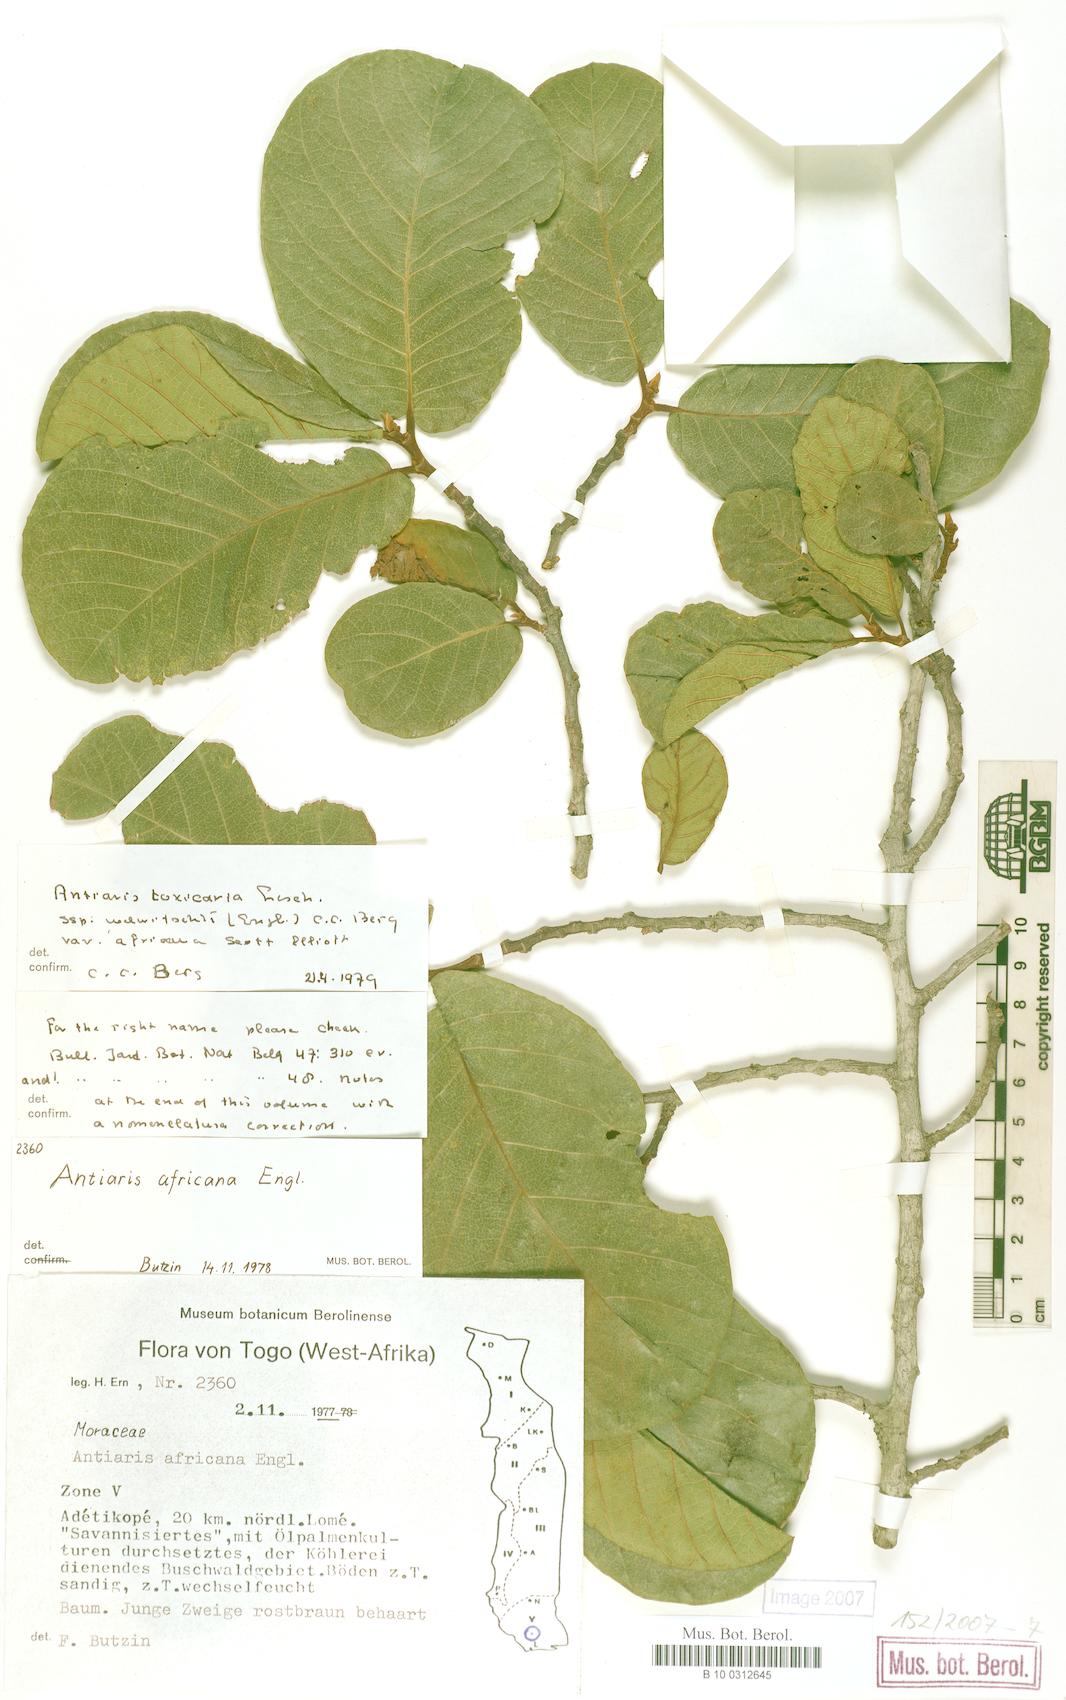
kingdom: Plantae
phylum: Tracheophyta
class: Magnoliopsida
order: Rosales
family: Moraceae
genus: Antiaris
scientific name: Antiaris toxicaria
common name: Sackingtree
